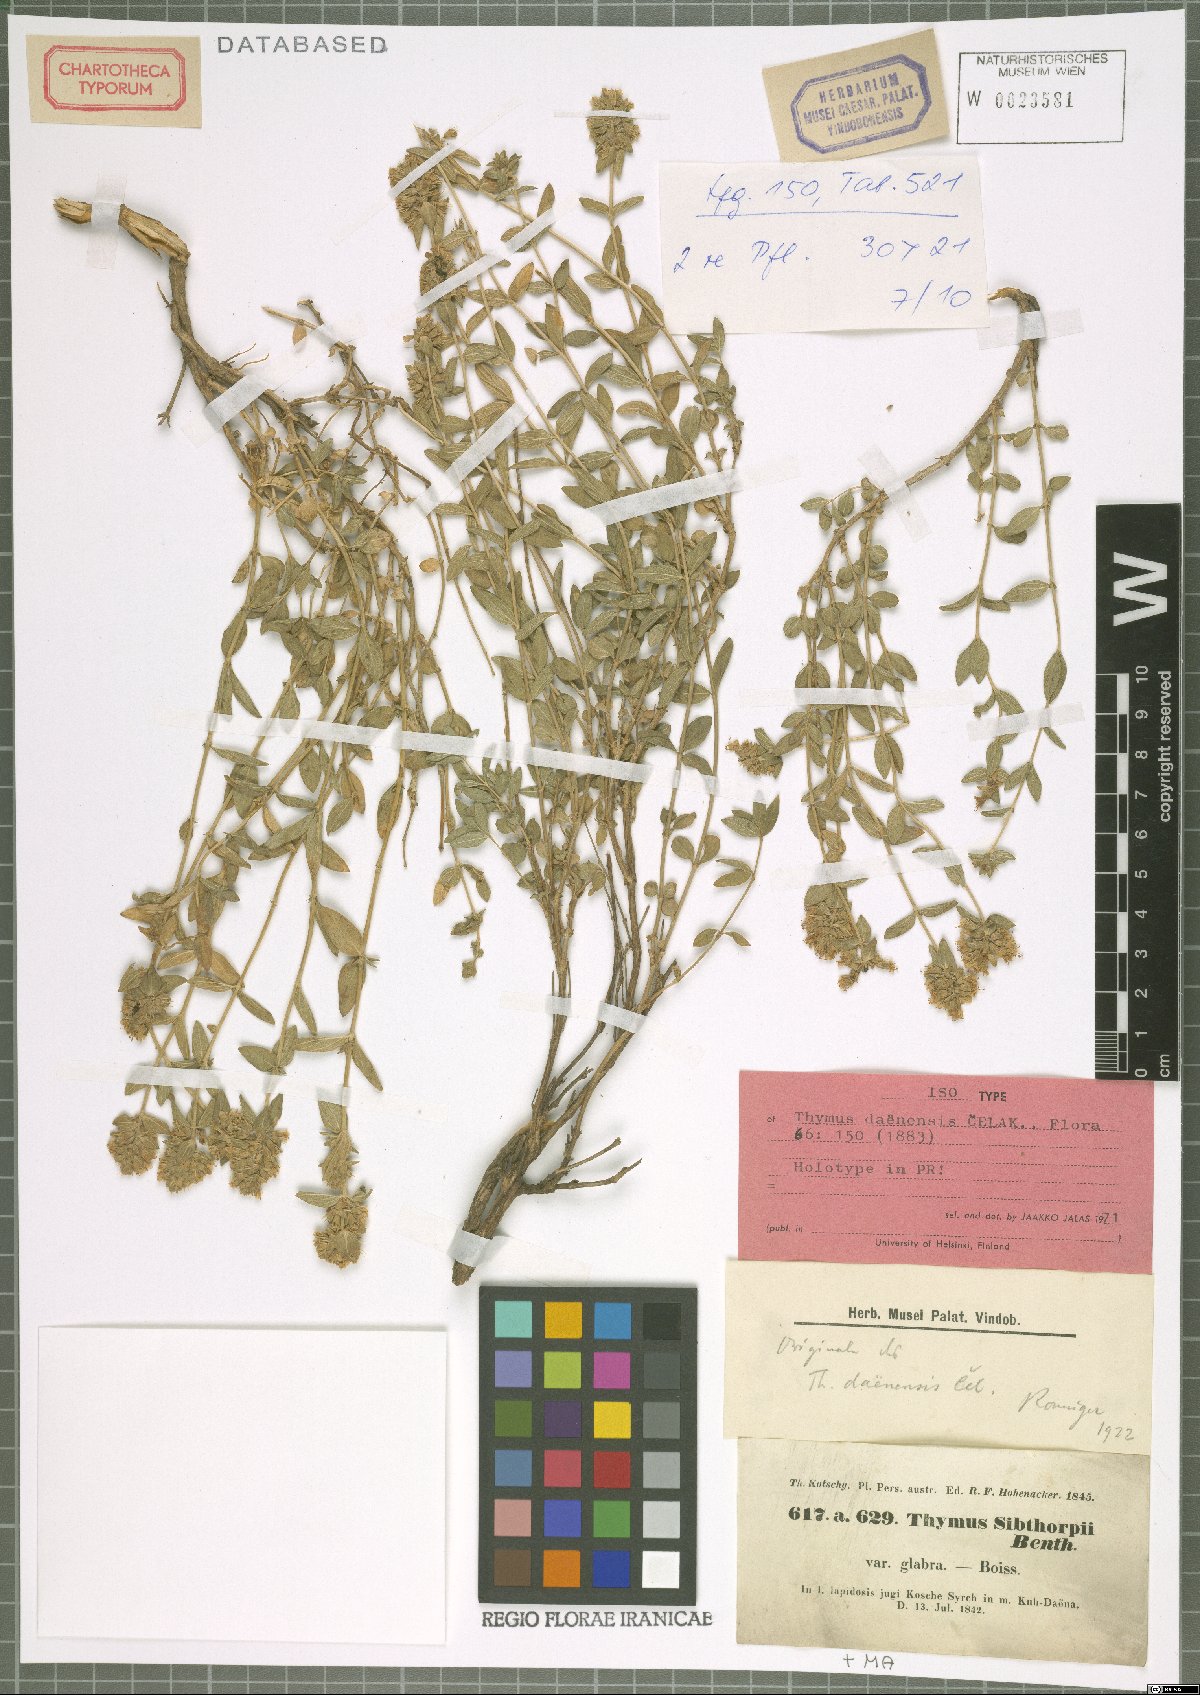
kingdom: Plantae
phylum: Tracheophyta
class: Magnoliopsida
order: Lamiales
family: Lamiaceae
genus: Thymus
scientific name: Thymus daenensis
